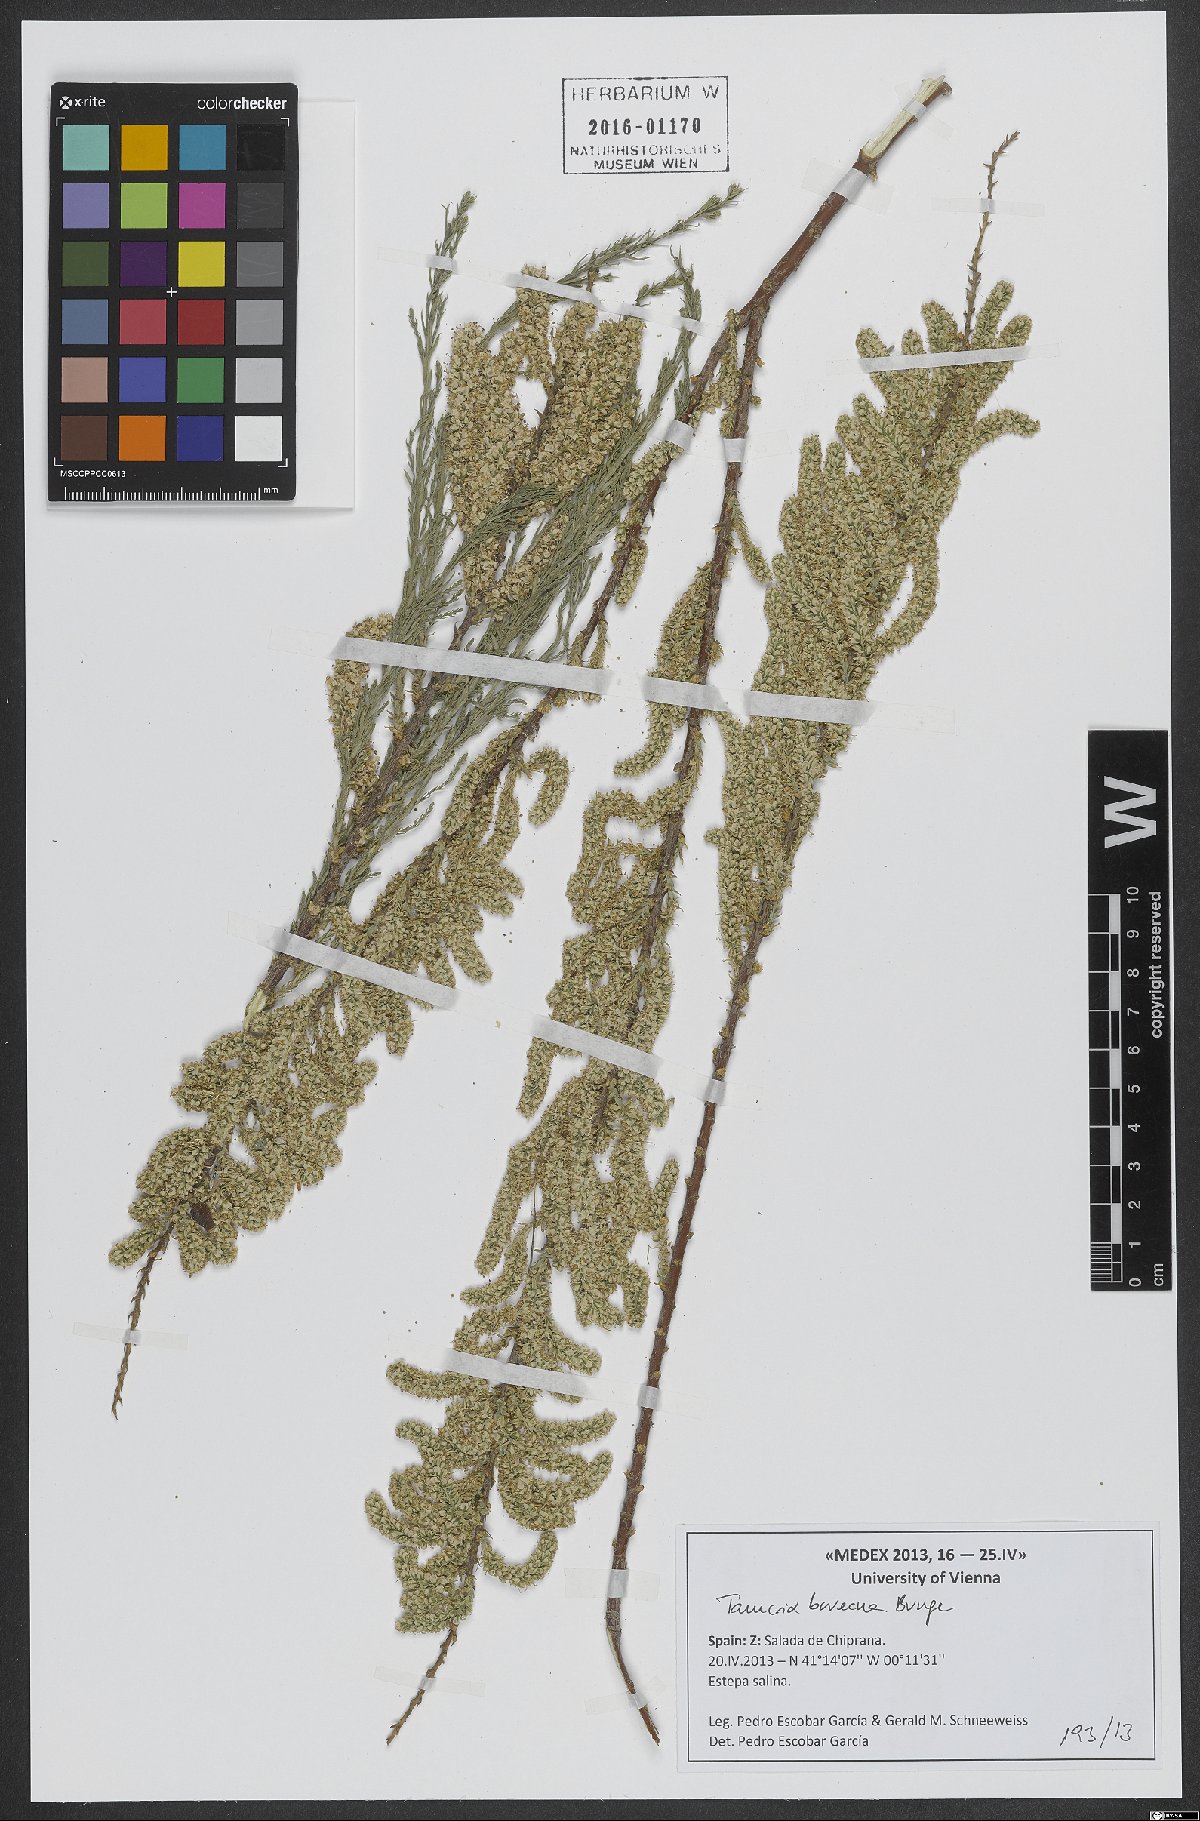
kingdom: Plantae
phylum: Tracheophyta
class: Magnoliopsida
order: Caryophyllales
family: Tamaricaceae
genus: Tamarix
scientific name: Tamarix boveana
